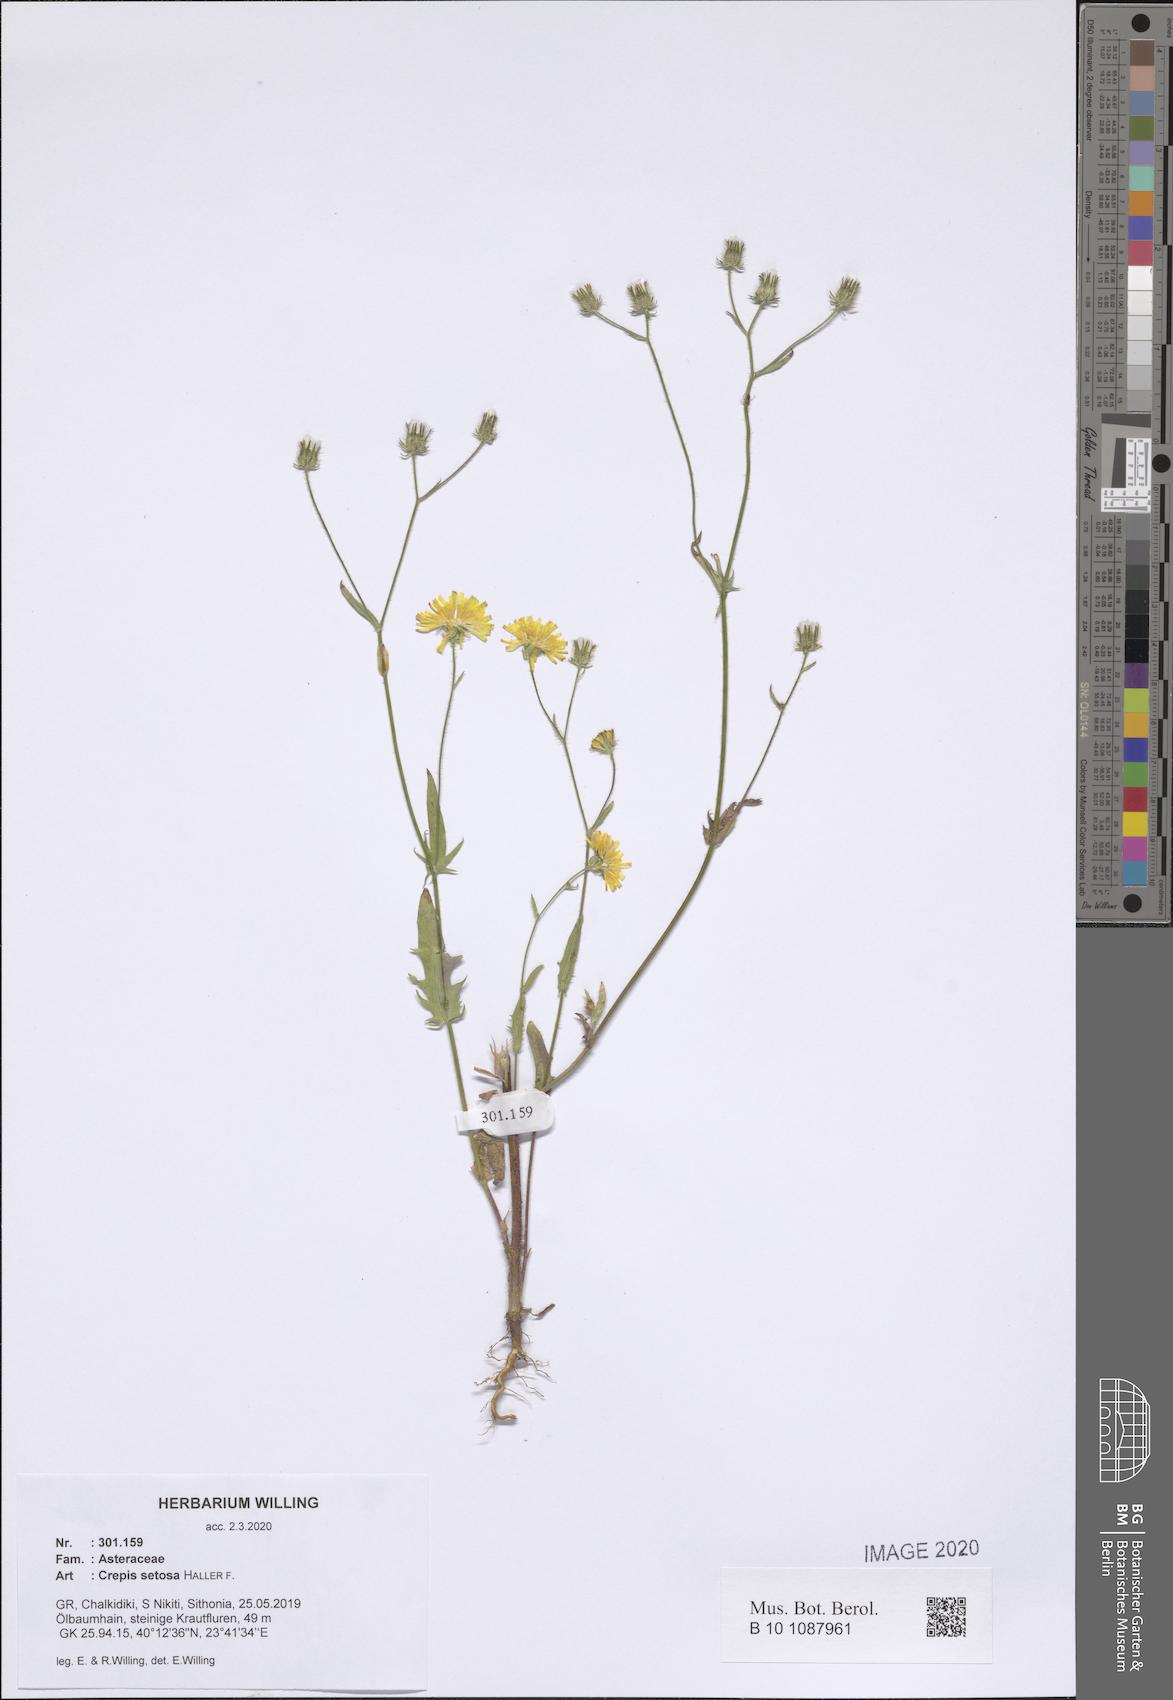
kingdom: Plantae
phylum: Tracheophyta
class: Magnoliopsida
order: Asterales
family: Asteraceae
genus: Crepis
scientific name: Crepis setosa
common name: Bristly hawk's-beard
